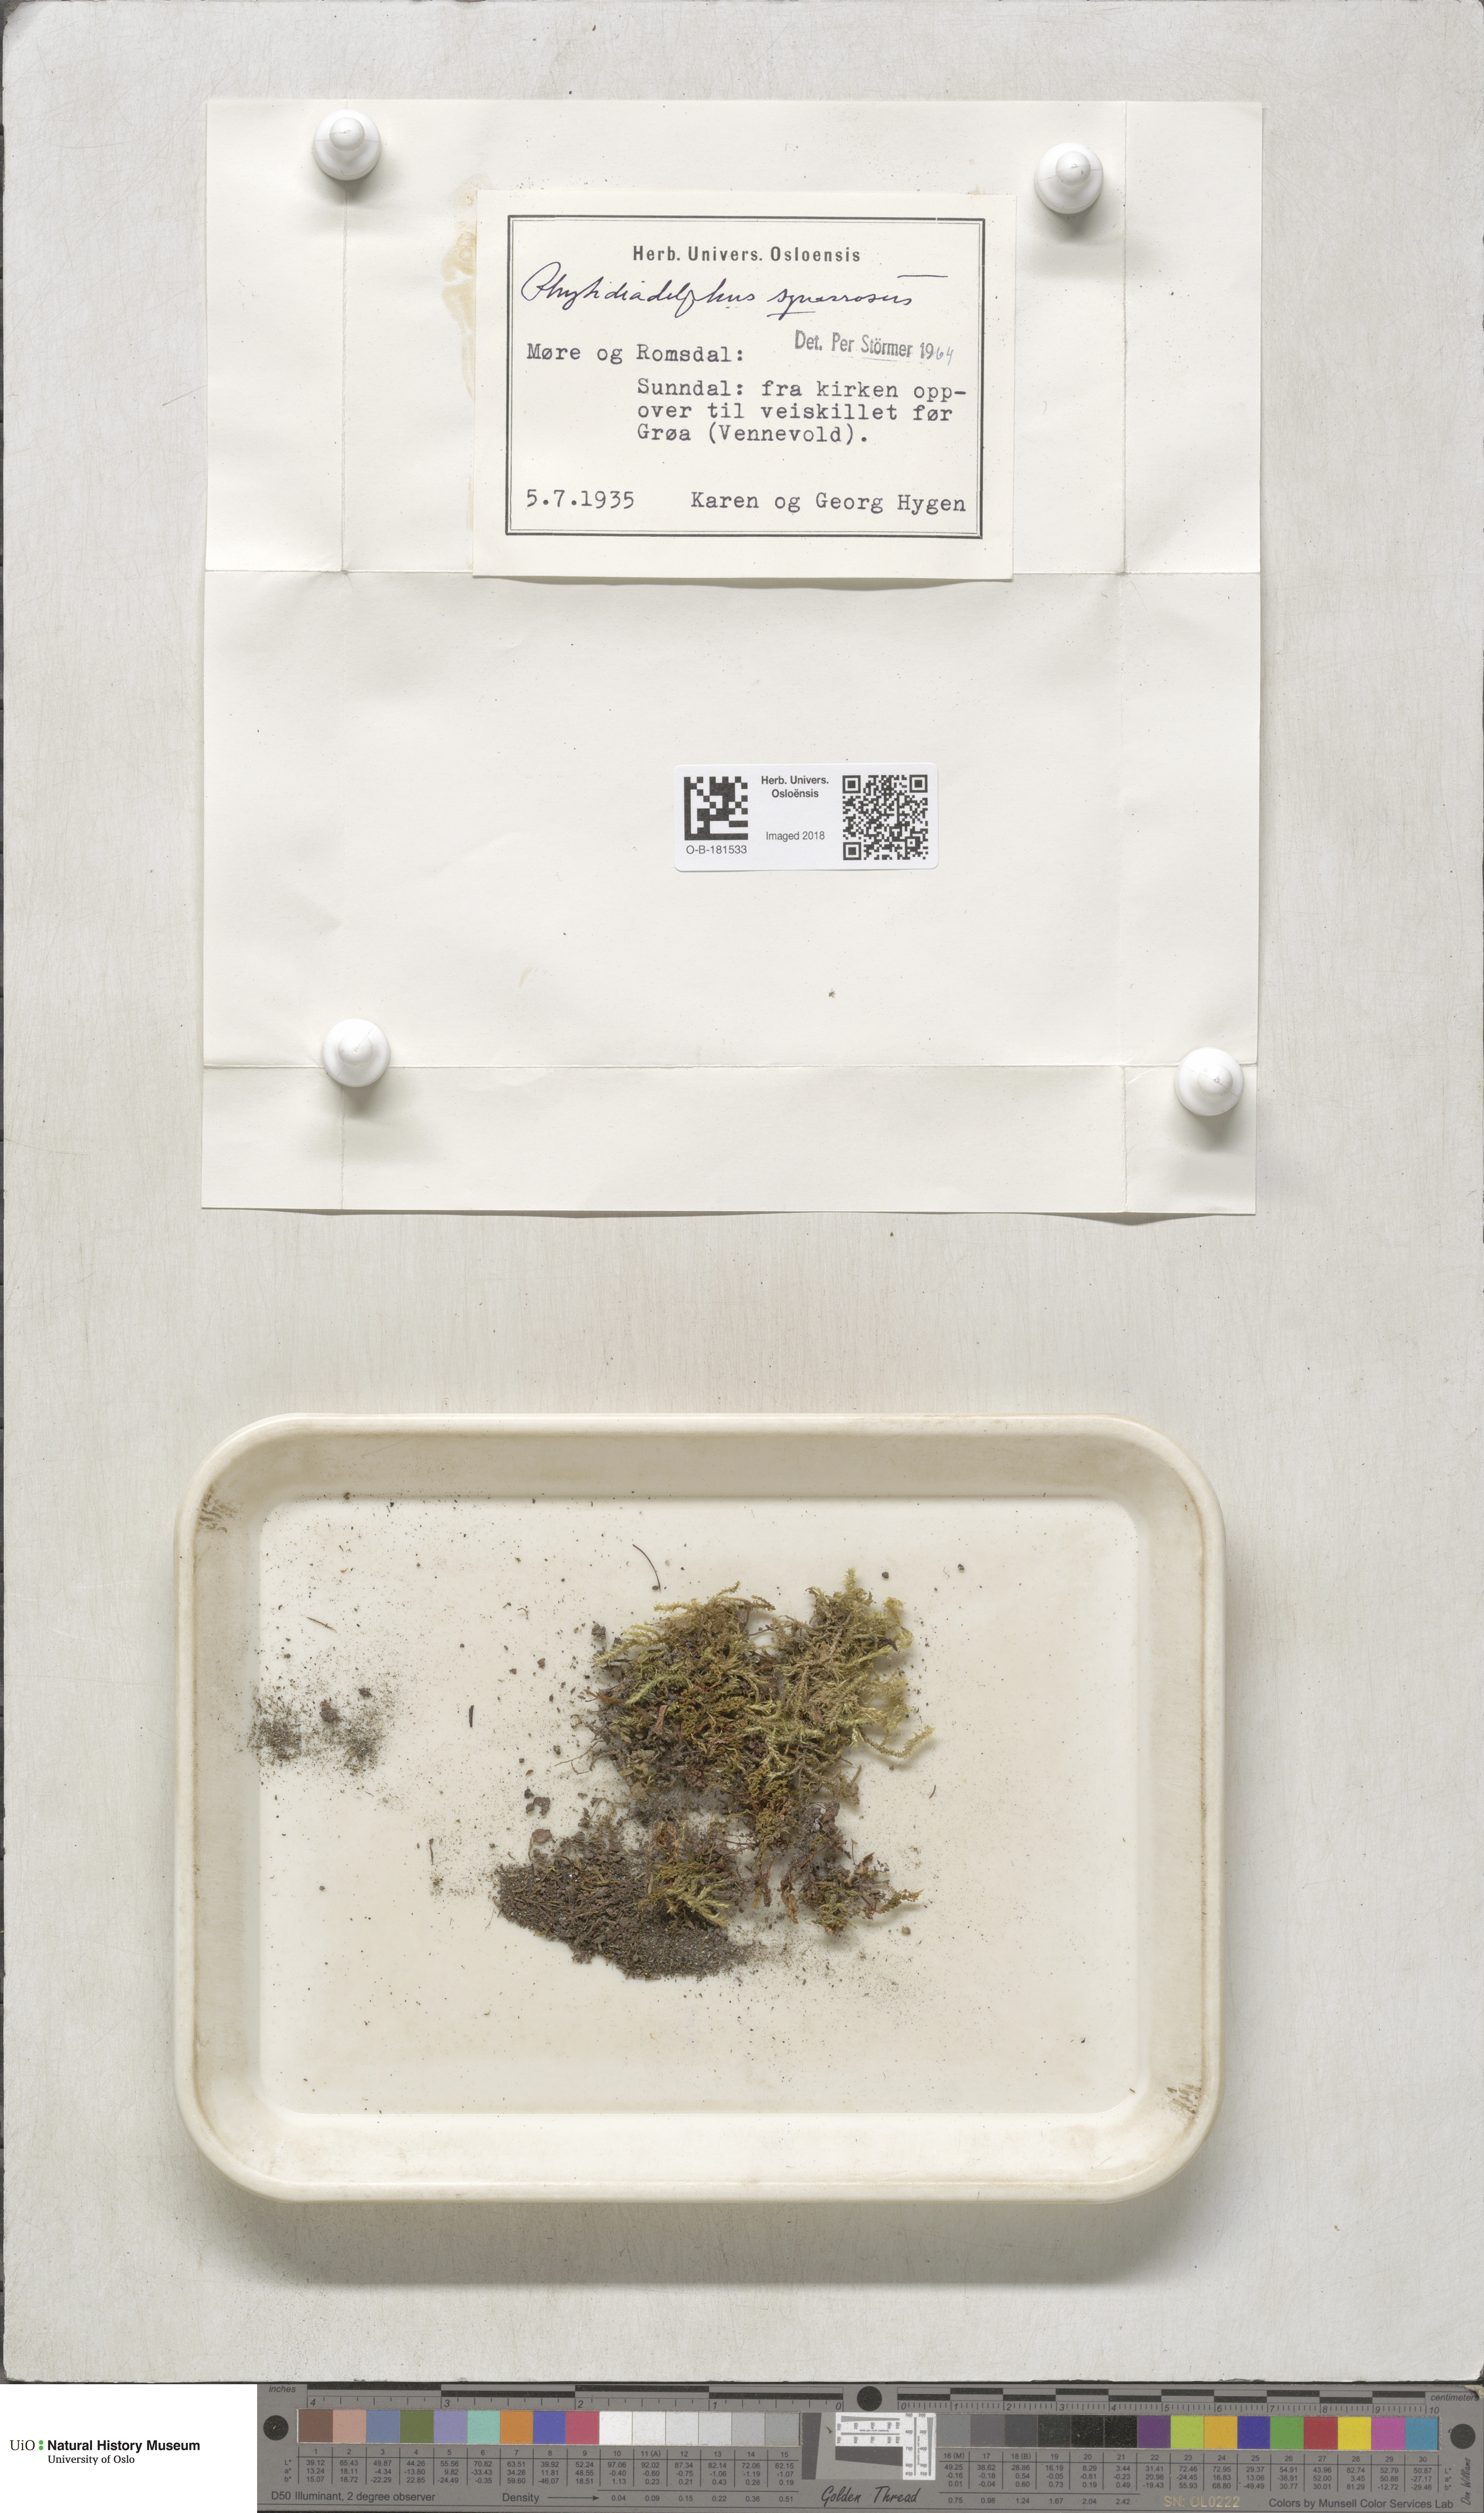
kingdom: Plantae
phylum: Bryophyta
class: Bryopsida
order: Hypnales
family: Hylocomiaceae
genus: Rhytidiadelphus
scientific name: Rhytidiadelphus squarrosus
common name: Springy turf-moss
